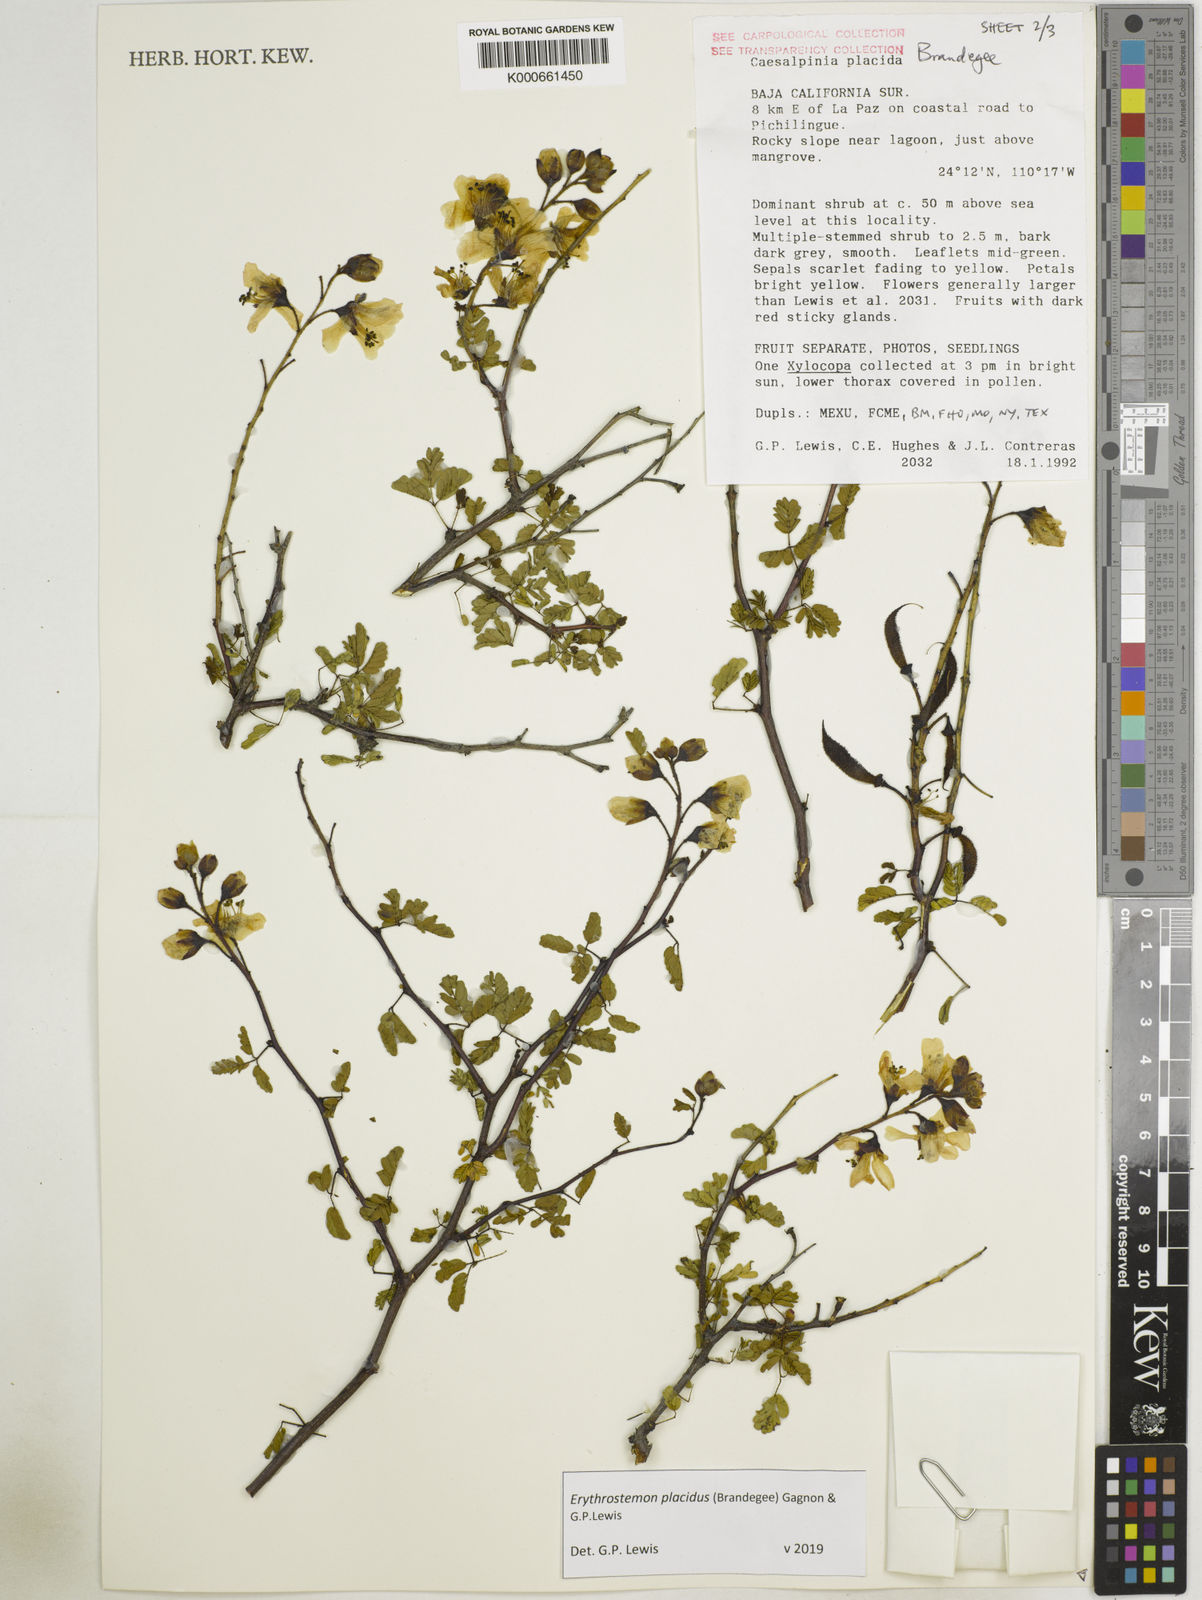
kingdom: Plantae
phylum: Tracheophyta
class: Magnoliopsida
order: Fabales
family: Fabaceae
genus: Erythrostemon
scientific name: Erythrostemon placidus
